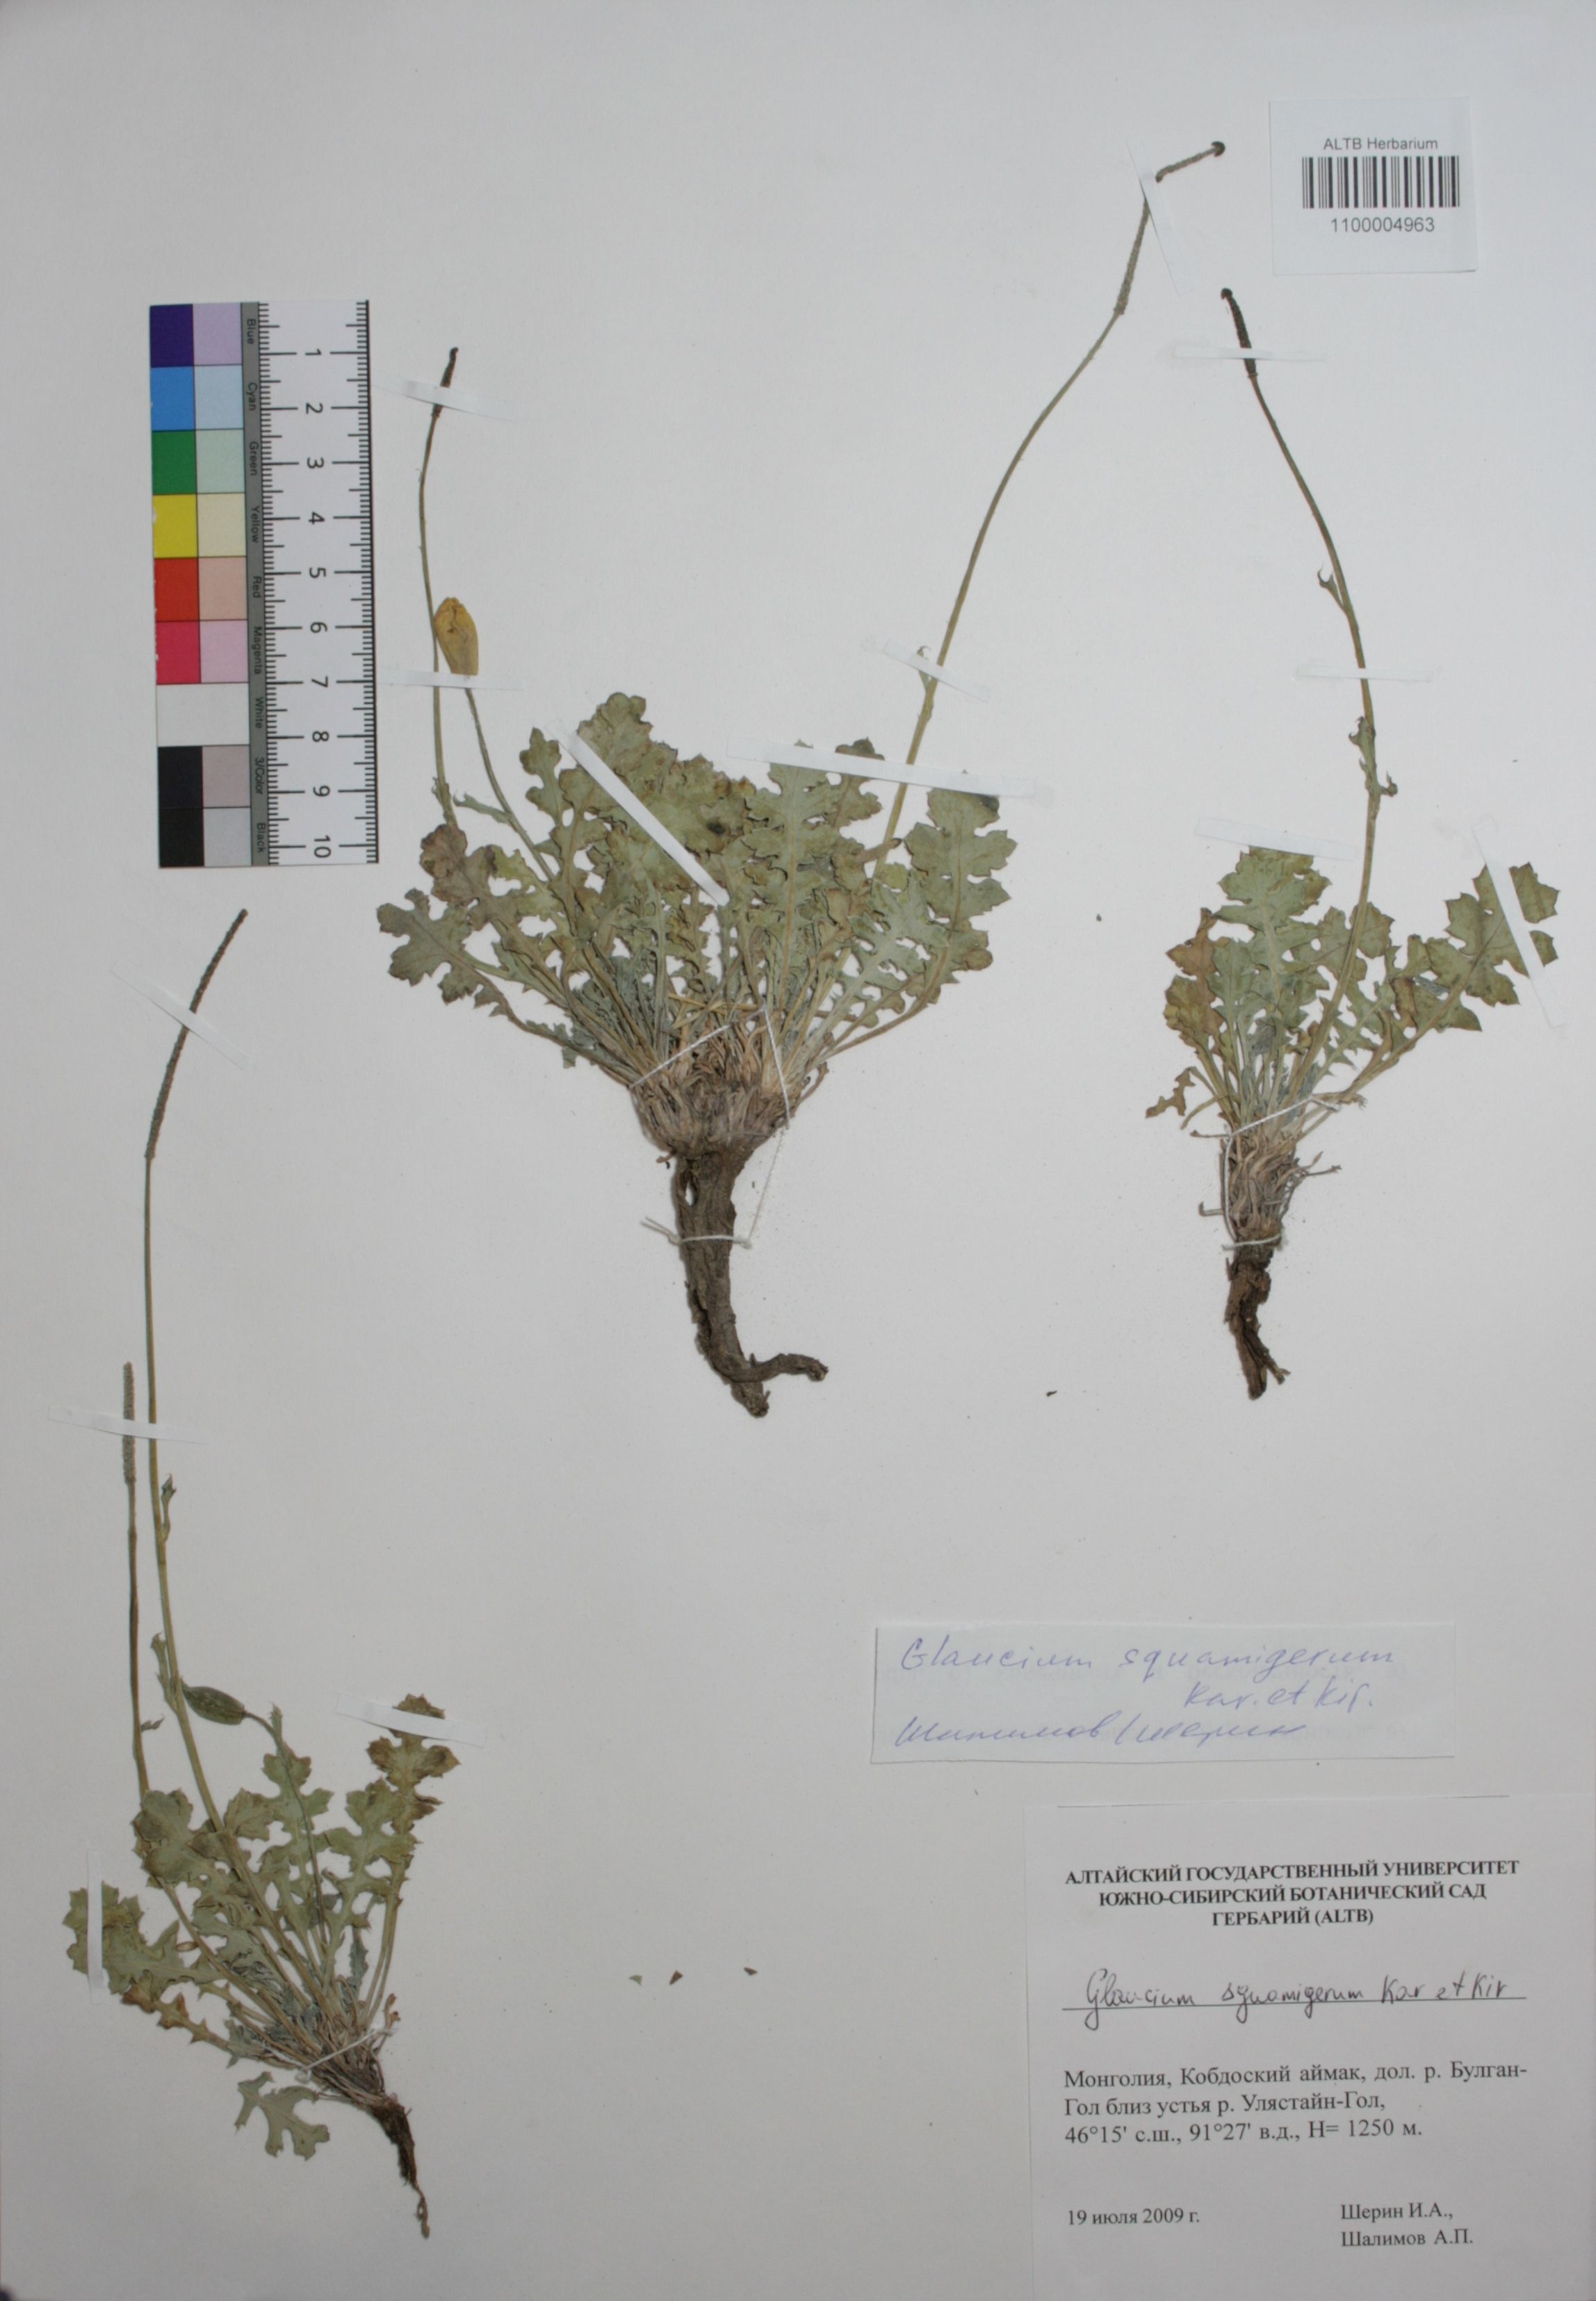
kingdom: Plantae
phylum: Tracheophyta
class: Magnoliopsida
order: Ranunculales
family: Papaveraceae
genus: Glaucium
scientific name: Glaucium squamigerum
